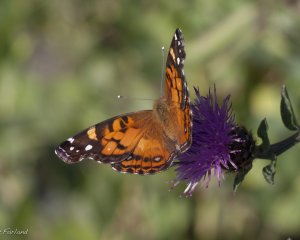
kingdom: Animalia
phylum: Arthropoda
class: Insecta
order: Lepidoptera
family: Nymphalidae
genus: Vanessa
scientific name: Vanessa virginiensis
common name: American Lady
